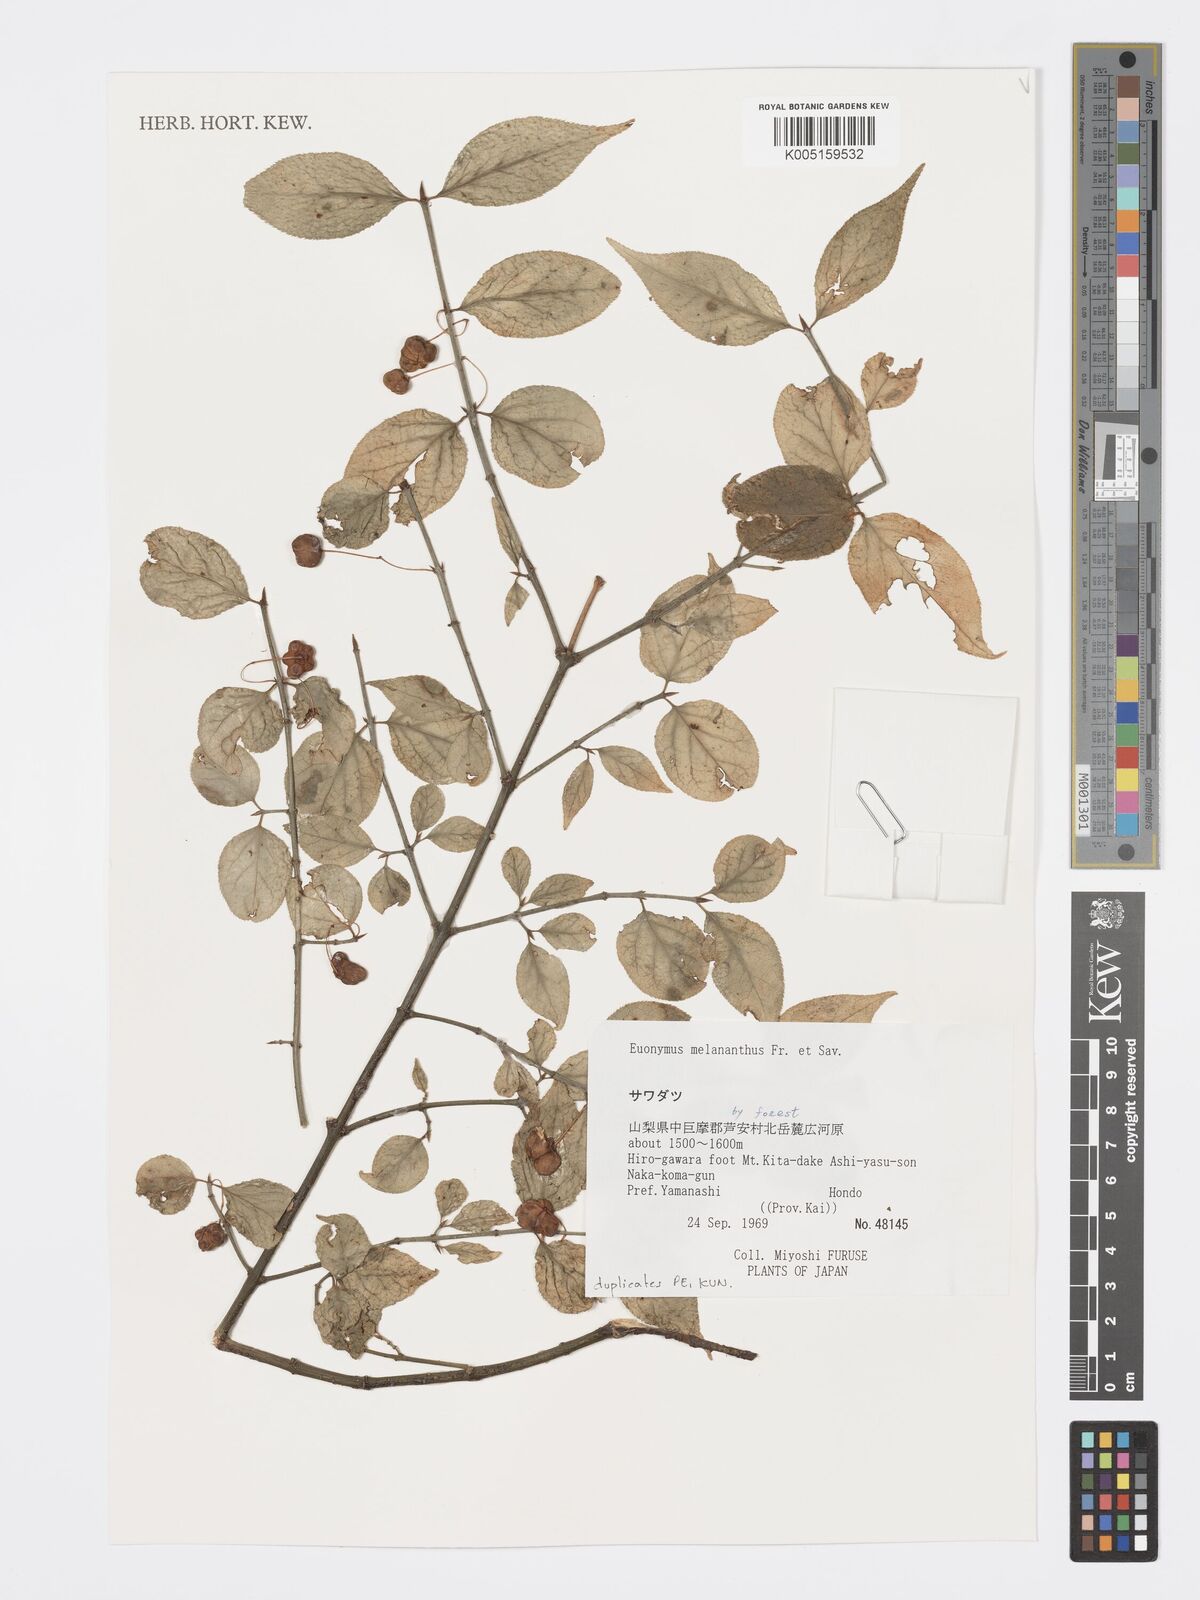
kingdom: Plantae
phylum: Tracheophyta
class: Magnoliopsida
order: Celastrales
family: Celastraceae
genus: Euonymus
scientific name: Euonymus melananthus
